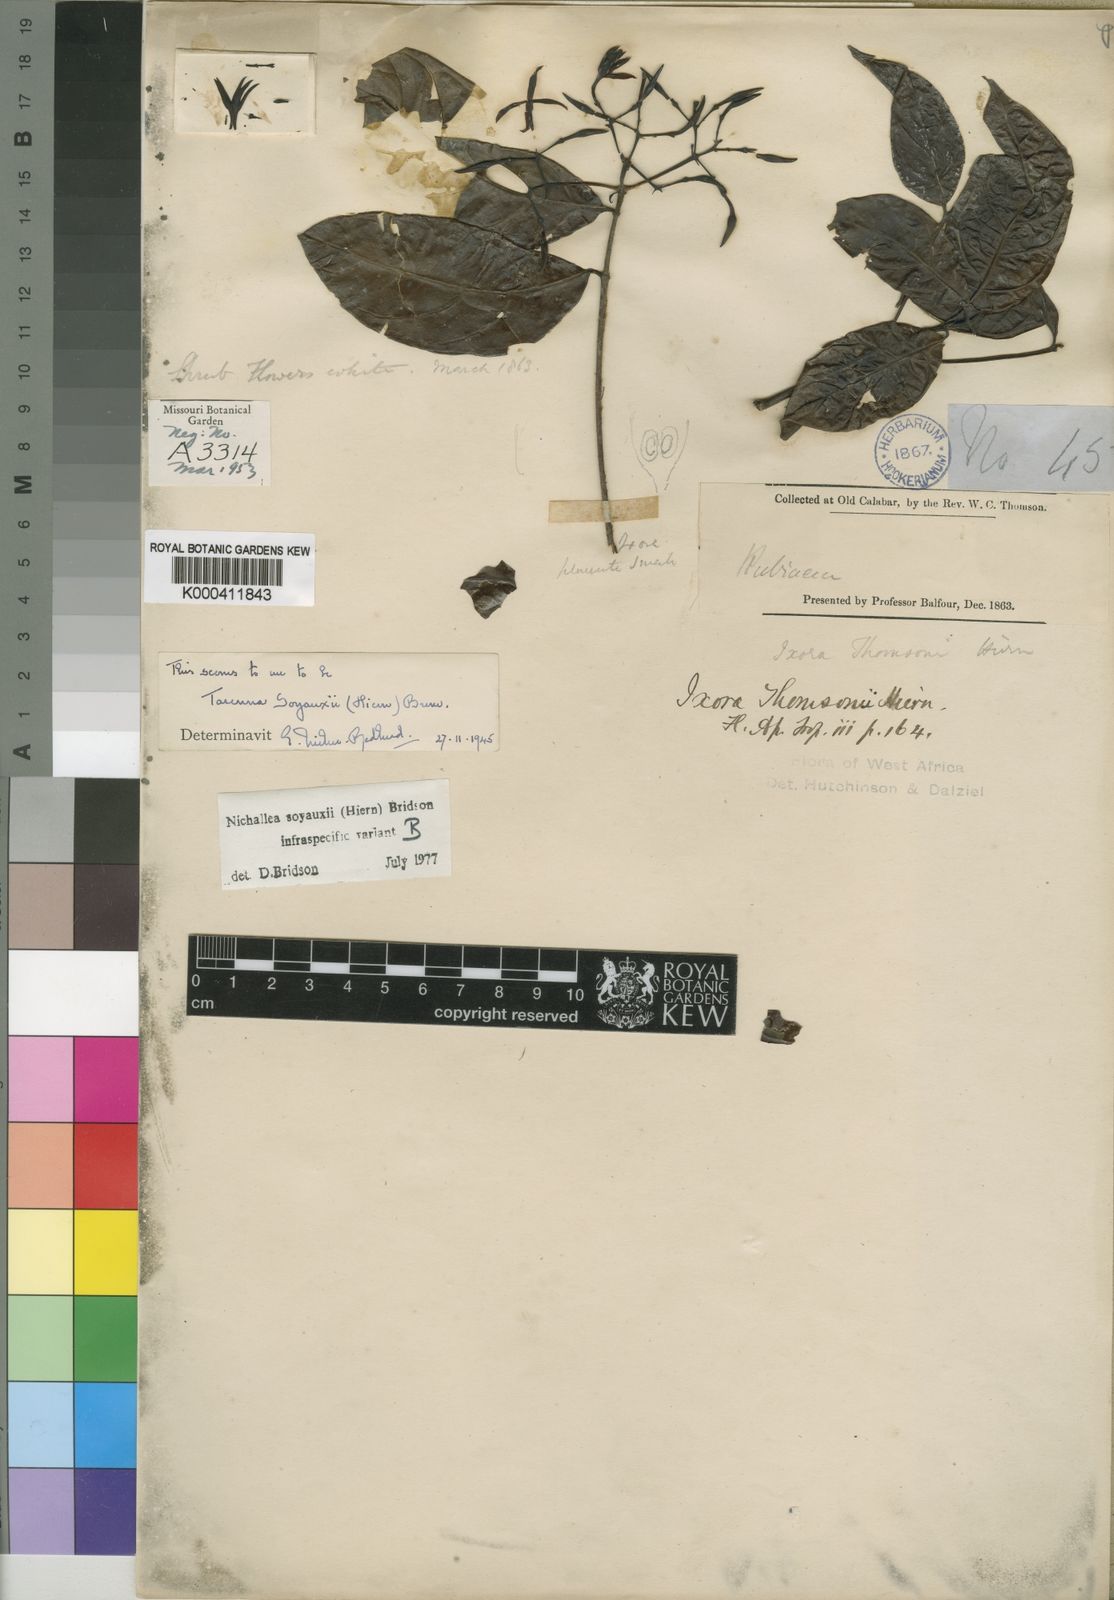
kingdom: Plantae
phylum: Tracheophyta
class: Magnoliopsida
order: Gentianales
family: Rubiaceae
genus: Nichallea
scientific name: Nichallea soyauxii
